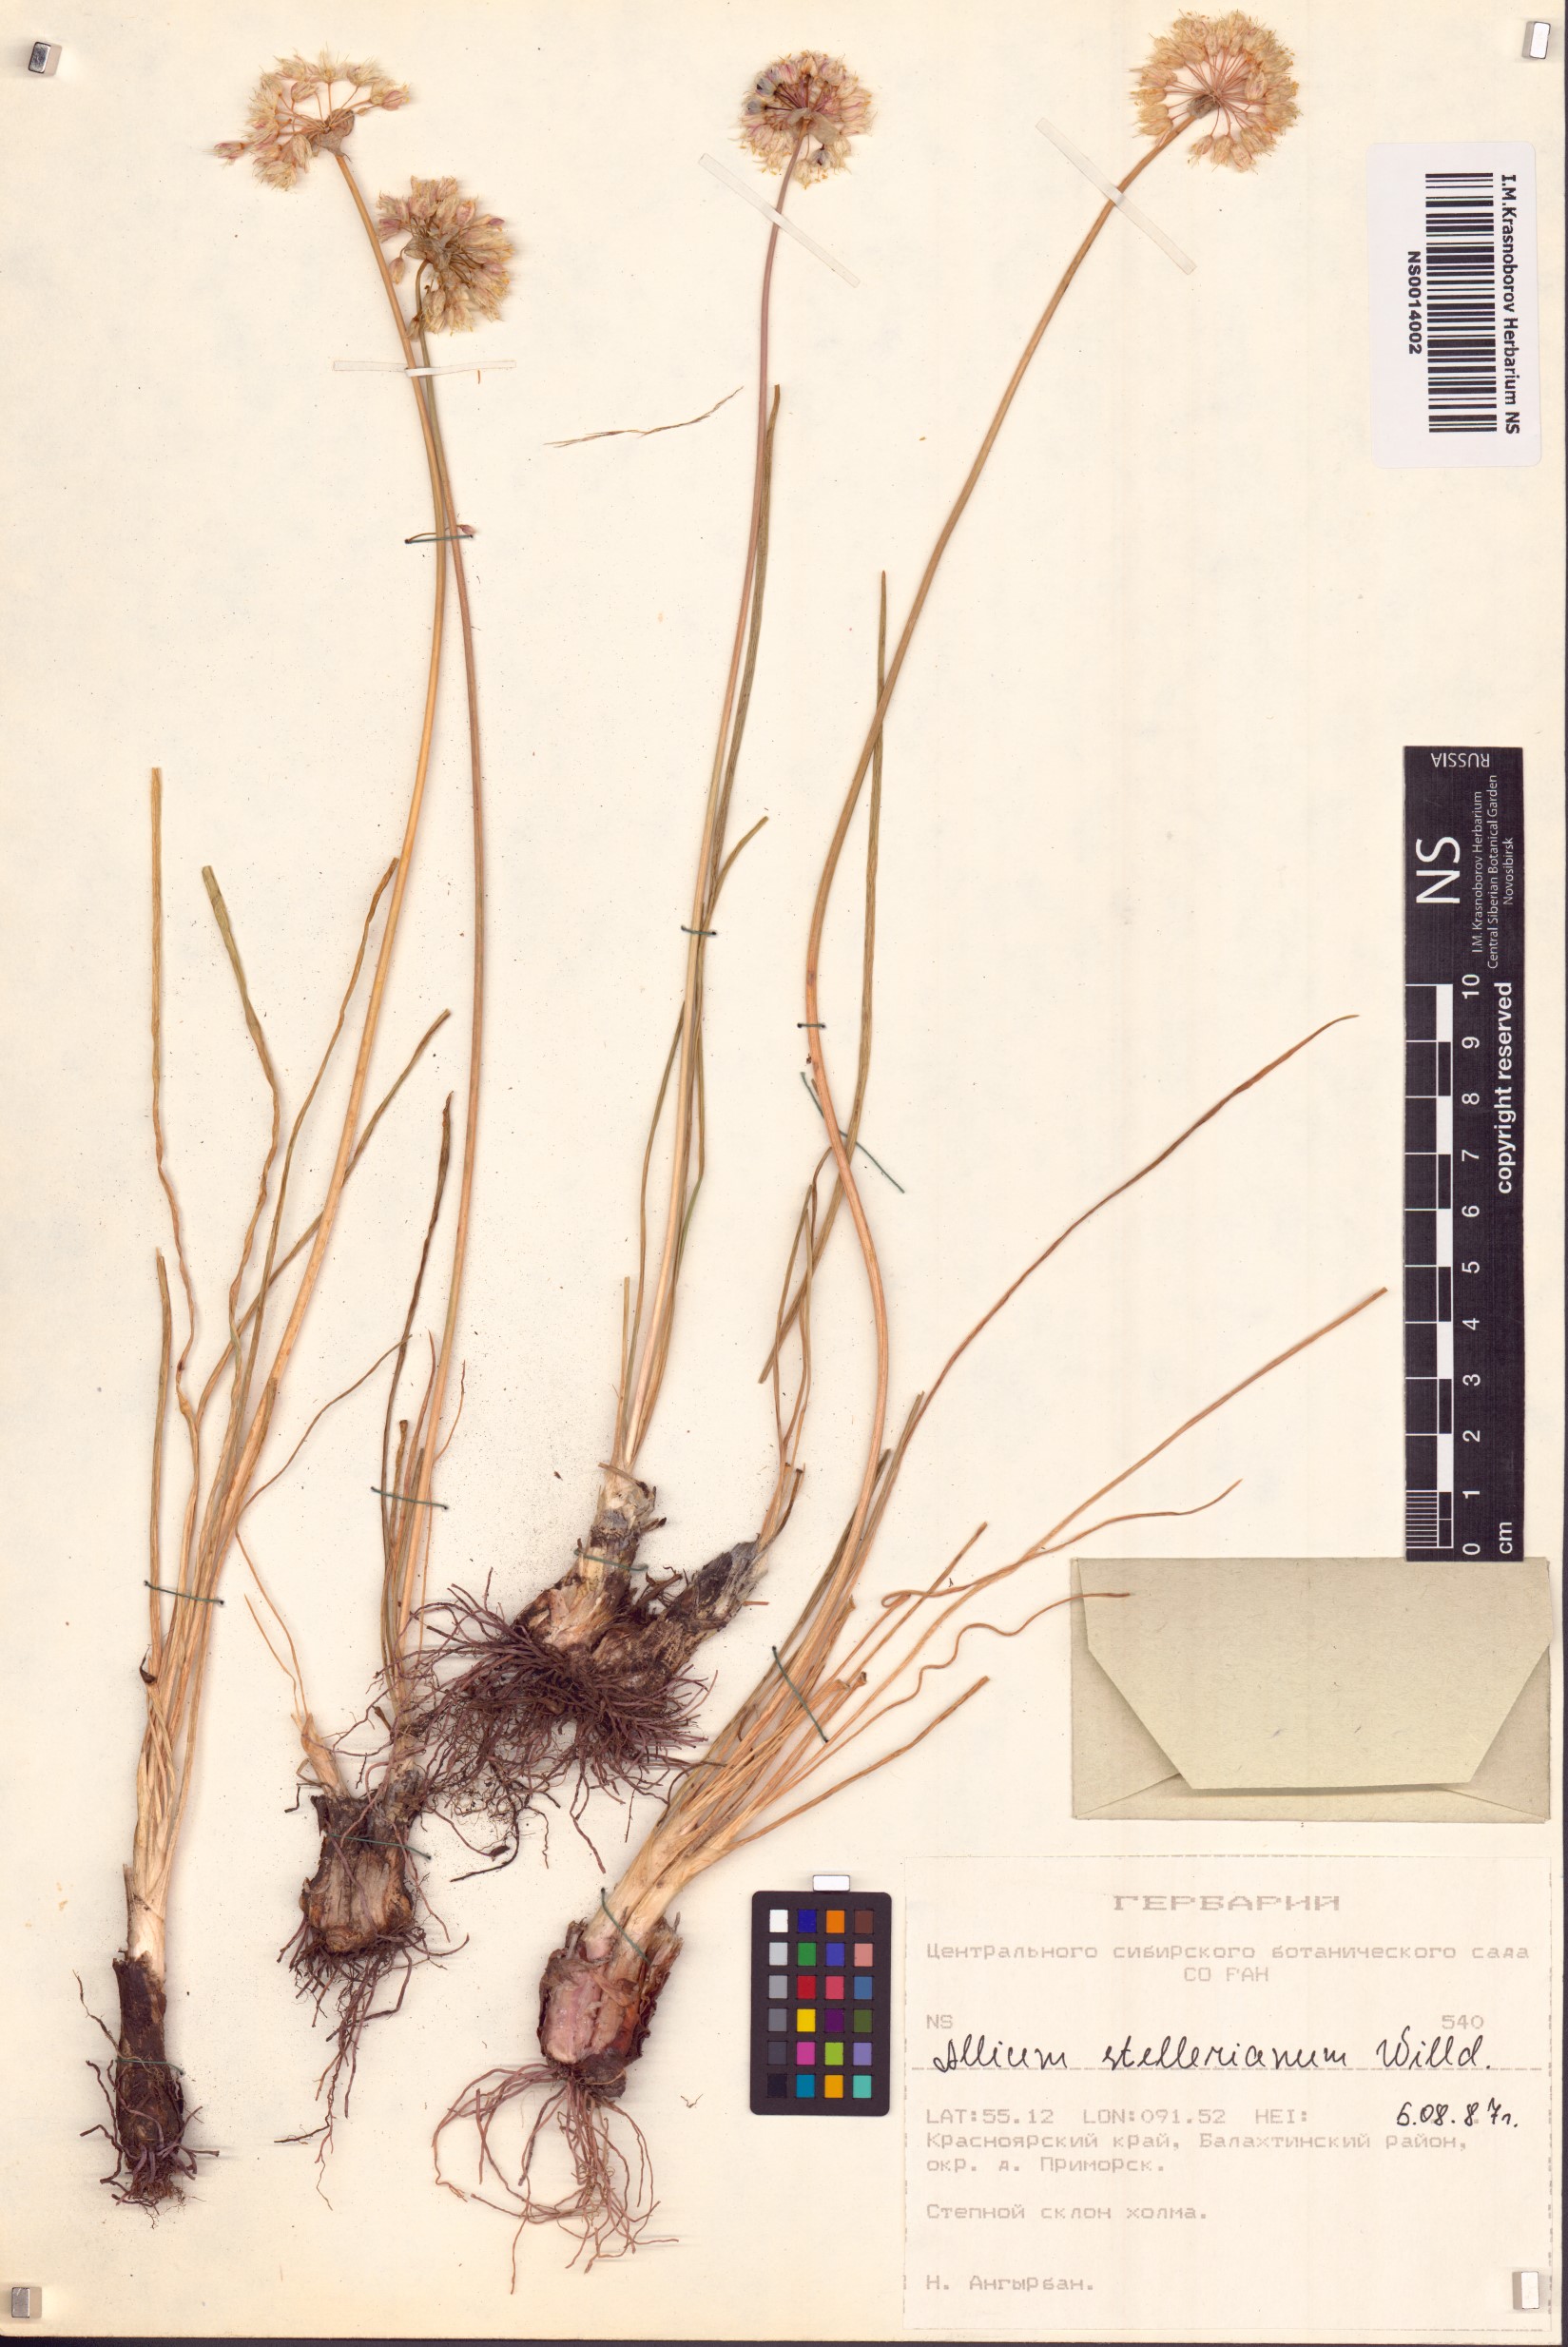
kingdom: Plantae
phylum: Tracheophyta
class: Liliopsida
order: Asparagales
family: Amaryllidaceae
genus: Allium
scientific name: Allium stellerianum
